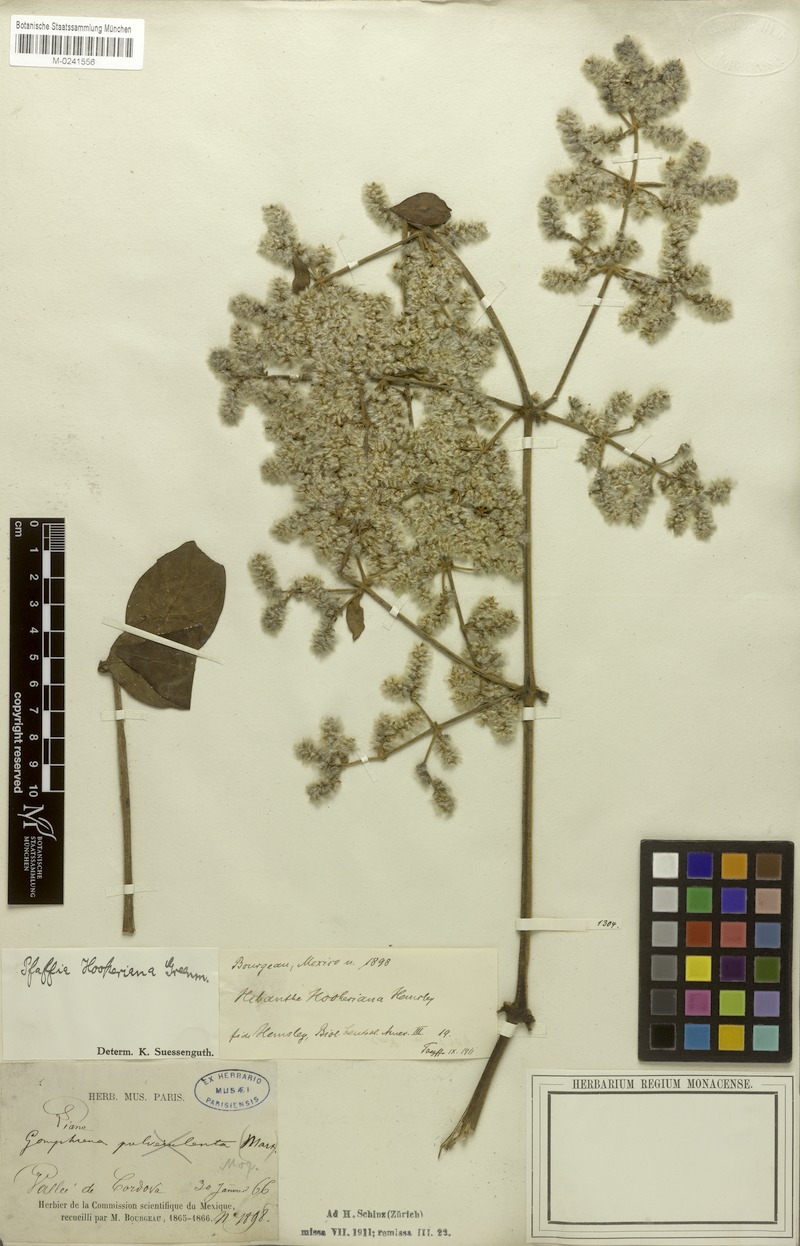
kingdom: Plantae
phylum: Tracheophyta
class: Magnoliopsida
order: Caryophyllales
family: Amaranthaceae
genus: Hebanthe
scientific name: Hebanthe grandiflora
